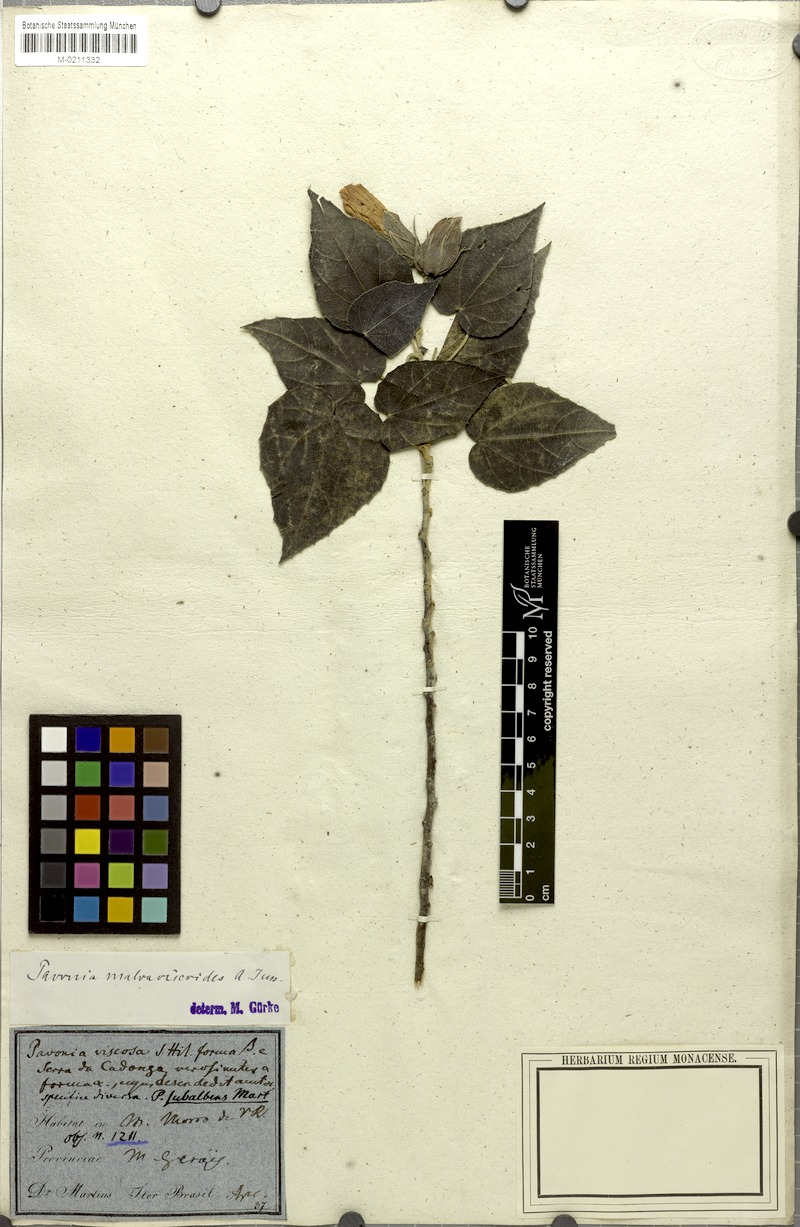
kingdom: Plantae
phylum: Tracheophyta
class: Magnoliopsida
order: Malvales
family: Malvaceae
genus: Pavonia
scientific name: Pavonia malvaviscoides
